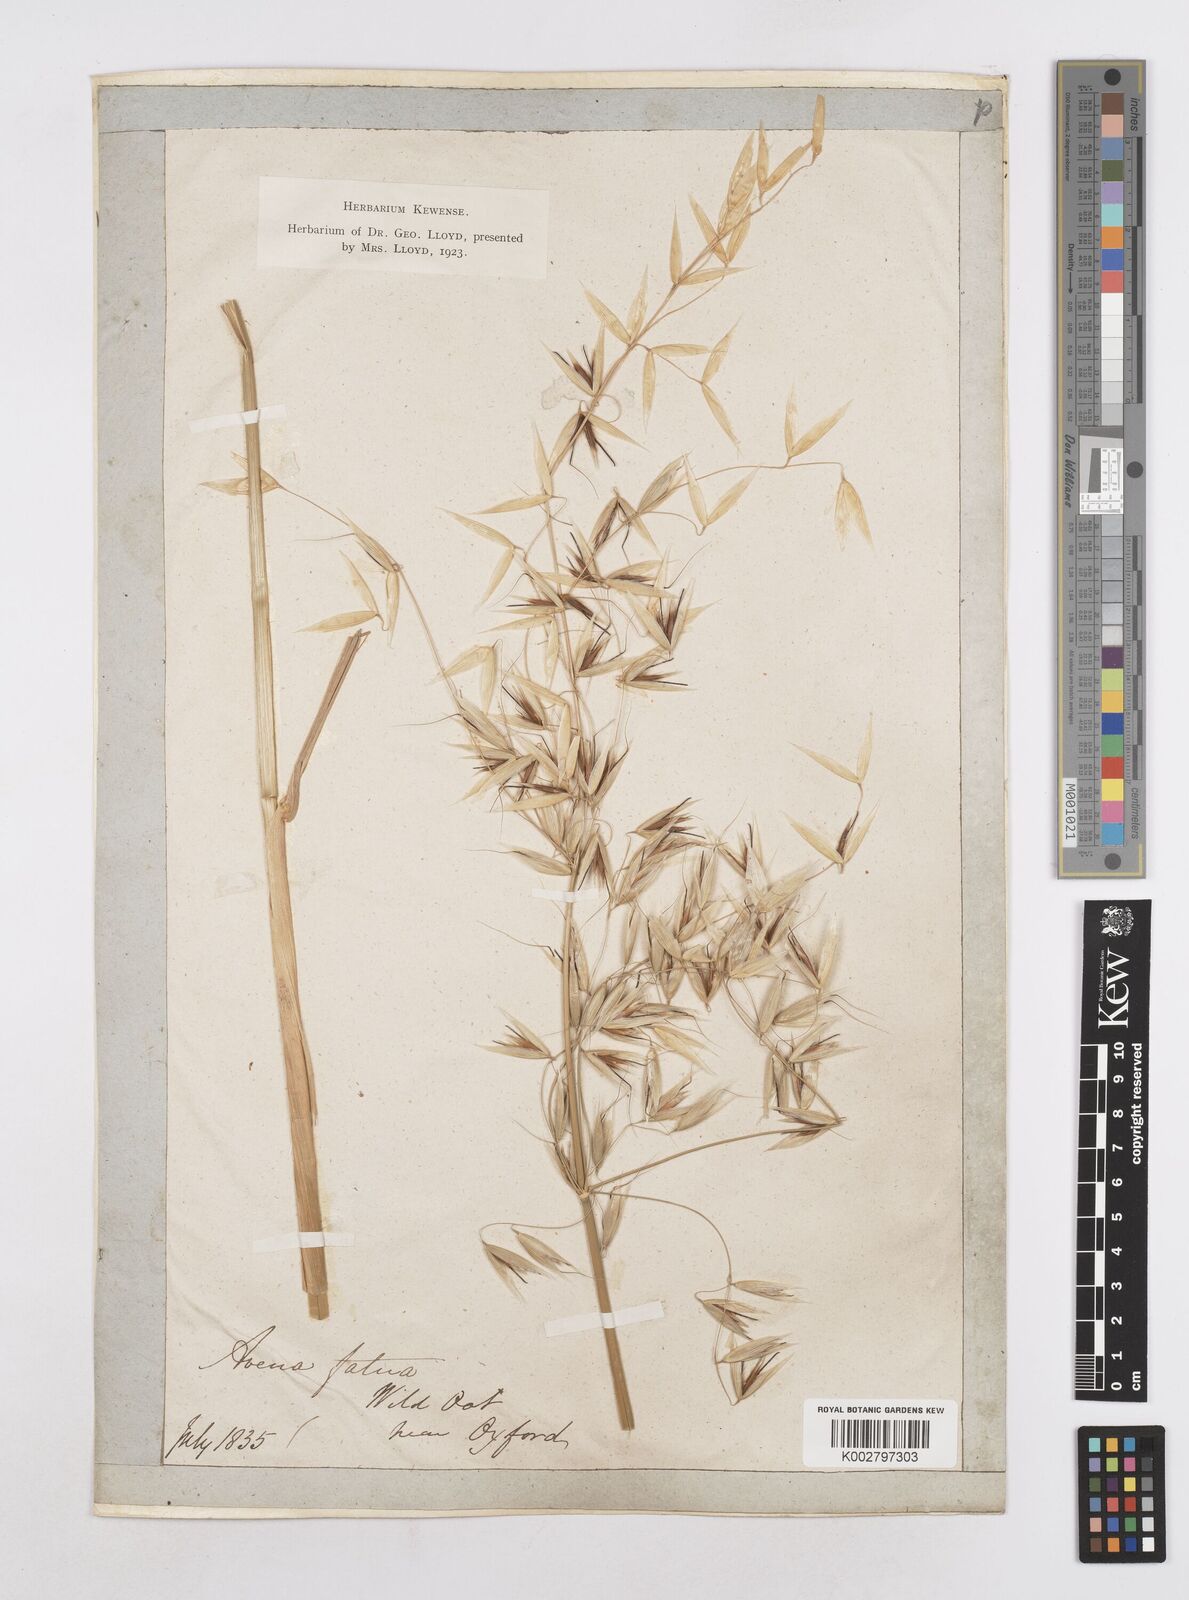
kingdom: Plantae
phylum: Tracheophyta
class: Liliopsida
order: Poales
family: Poaceae
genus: Avena
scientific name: Avena fatua
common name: Wild oat
